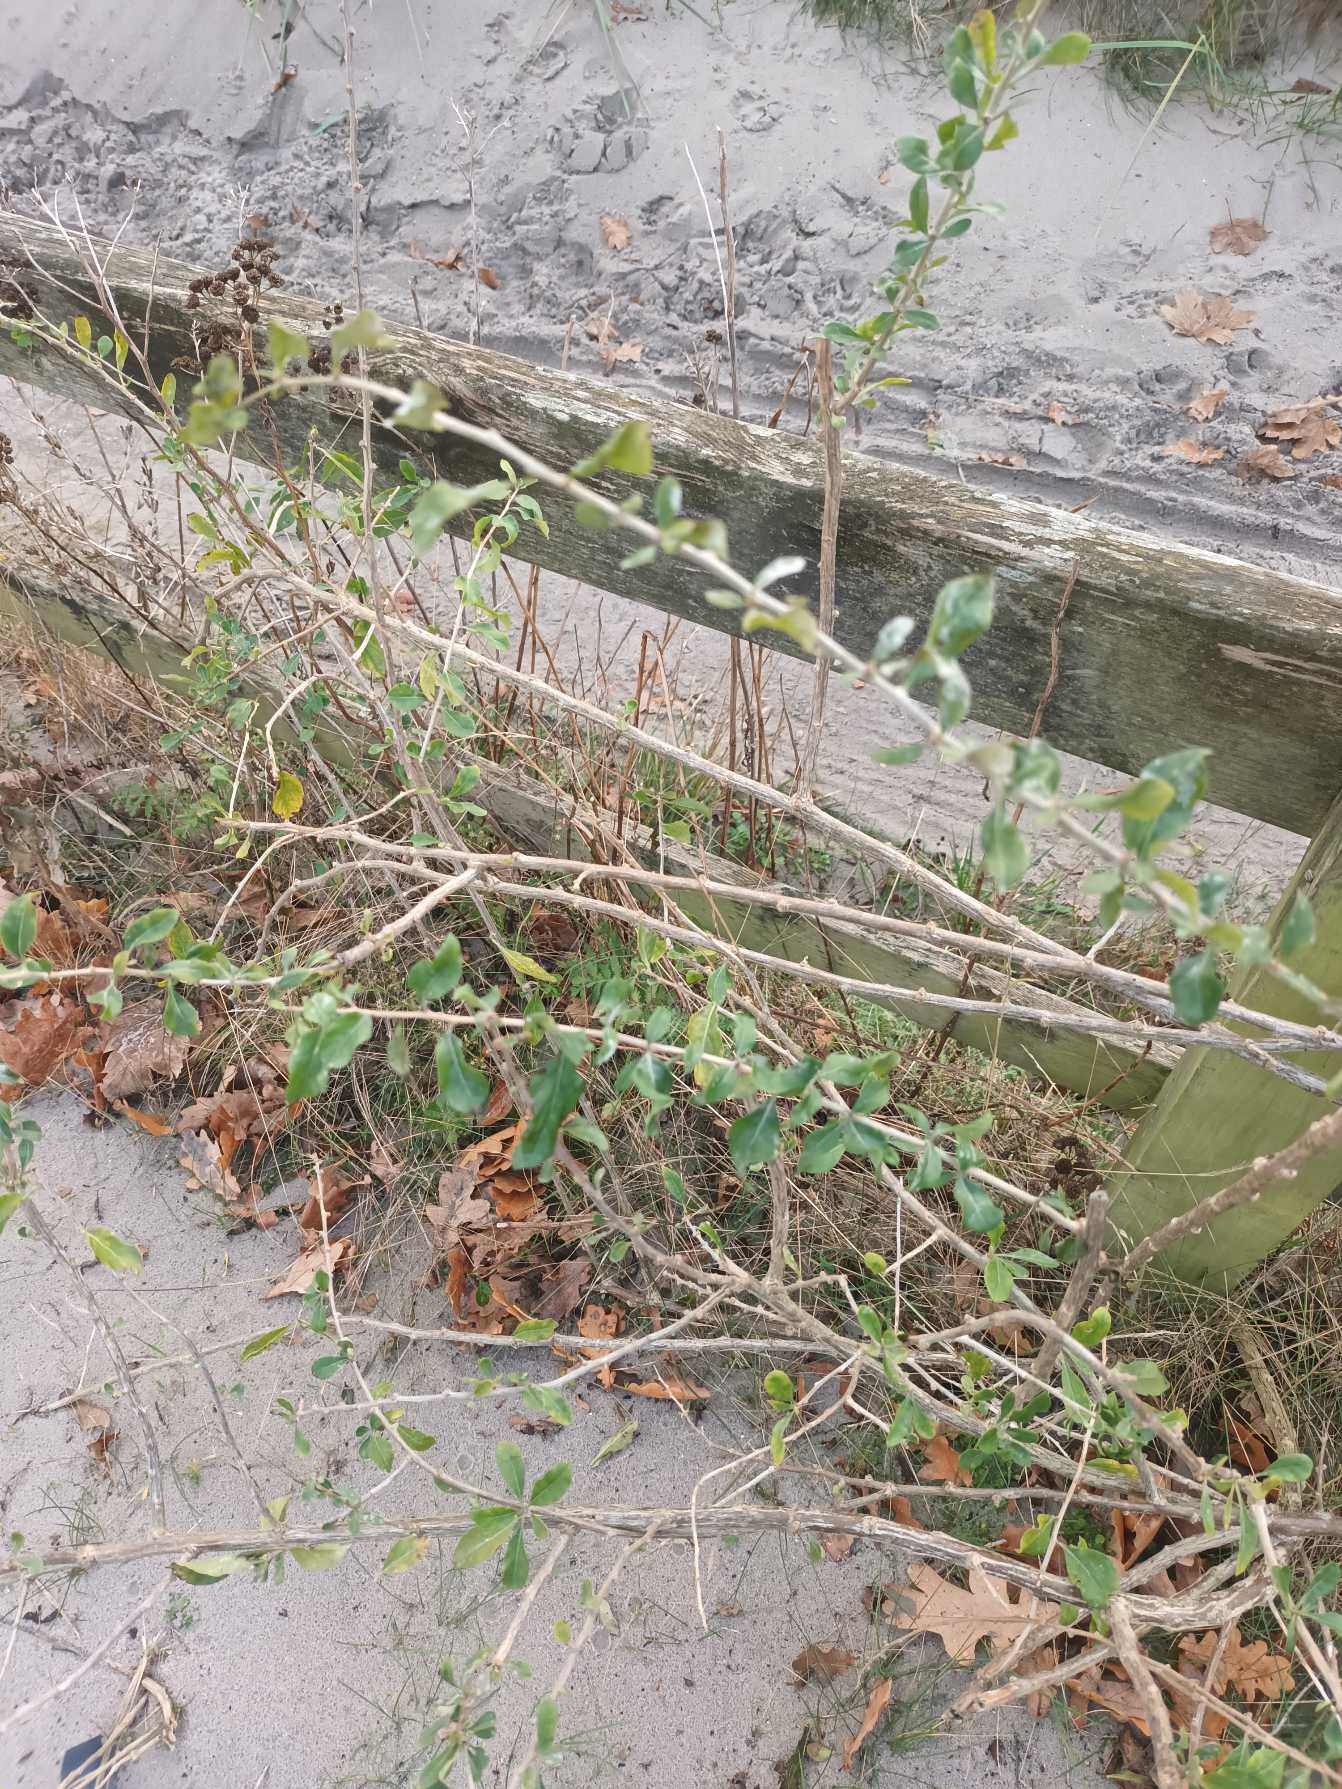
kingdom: Plantae
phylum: Tracheophyta
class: Magnoliopsida
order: Solanales
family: Solanaceae
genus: Lycium
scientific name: Lycium barbarum
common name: Bukketorn
